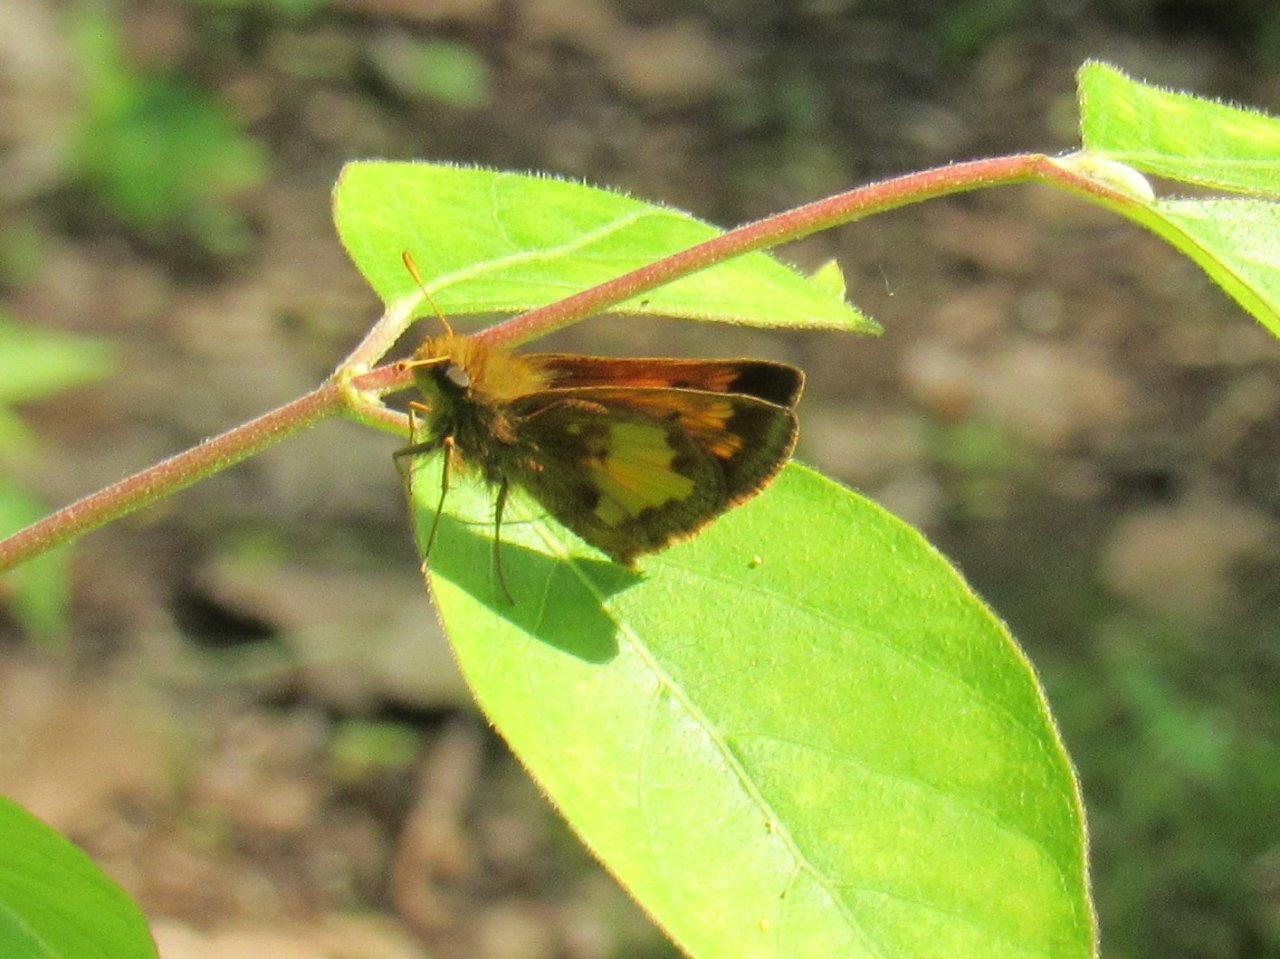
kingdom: Animalia
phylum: Arthropoda
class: Insecta
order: Lepidoptera
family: Hesperiidae
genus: Lon
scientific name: Lon hobomok
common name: Hobomok Skipper
